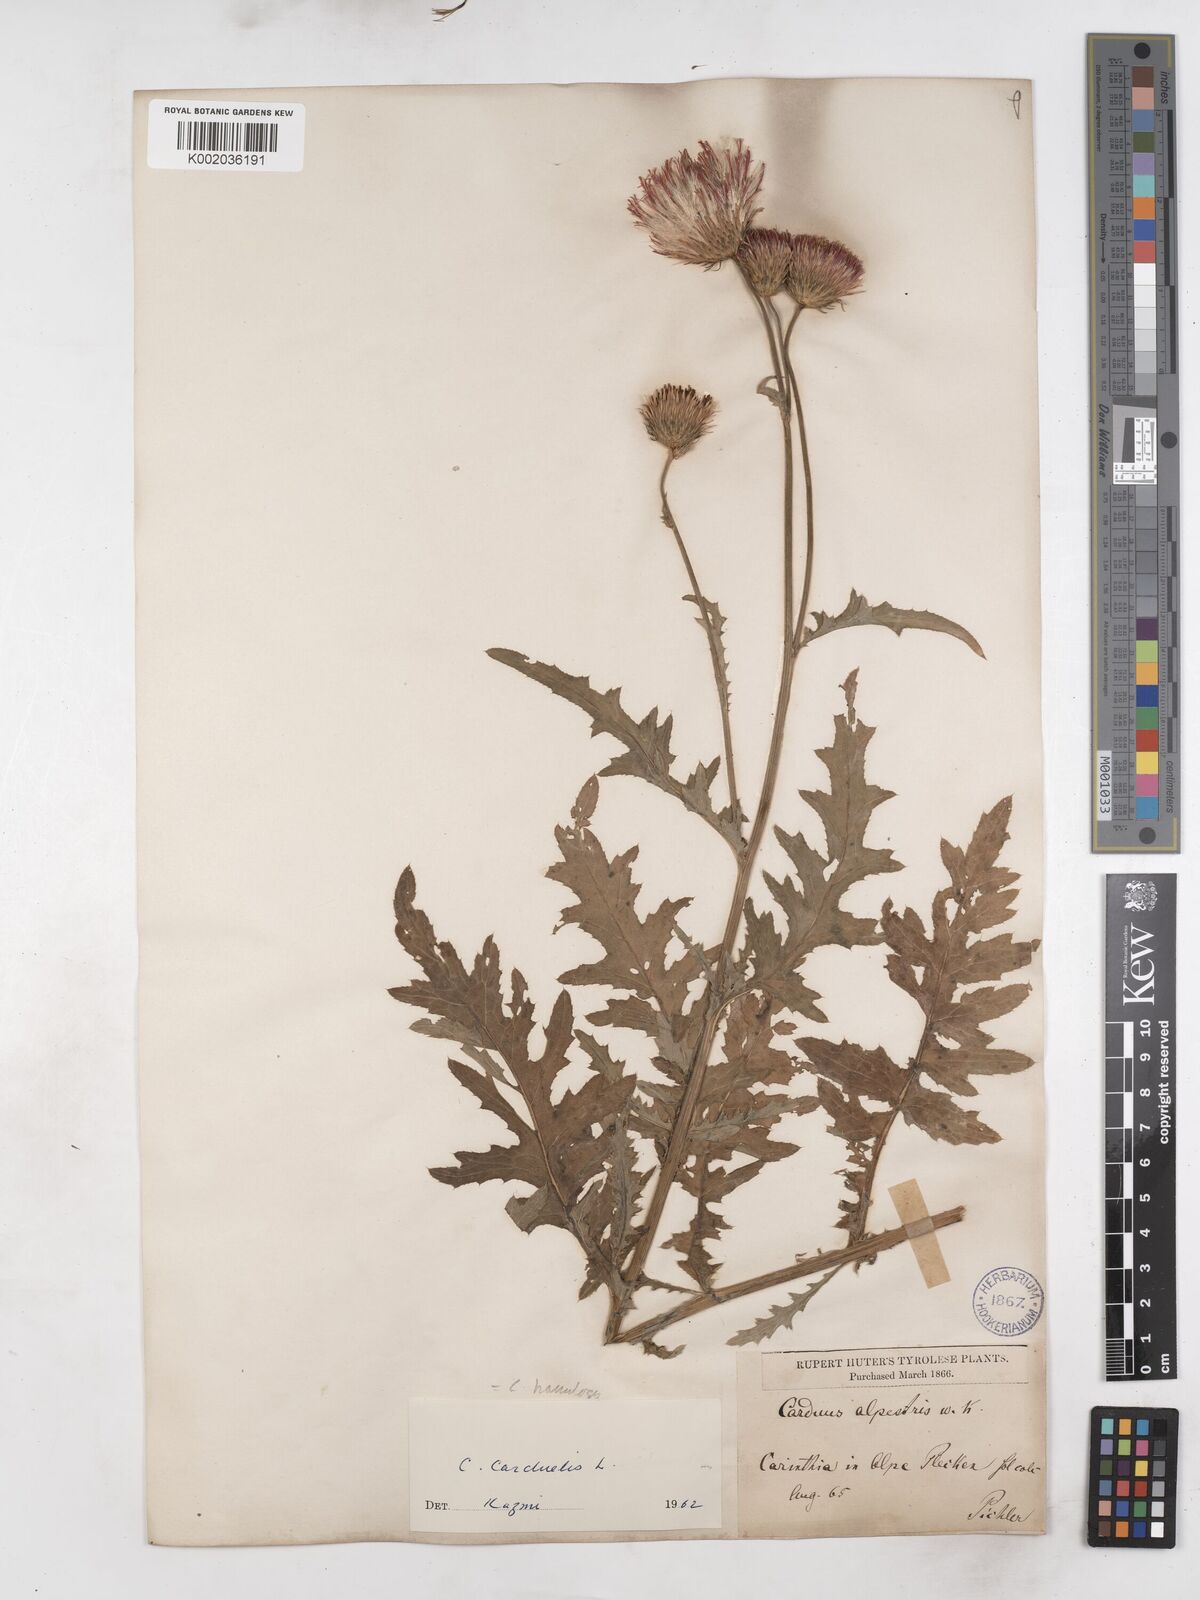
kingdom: Plantae
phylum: Tracheophyta
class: Magnoliopsida
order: Asterales
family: Asteraceae
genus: Carduus
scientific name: Carduus
